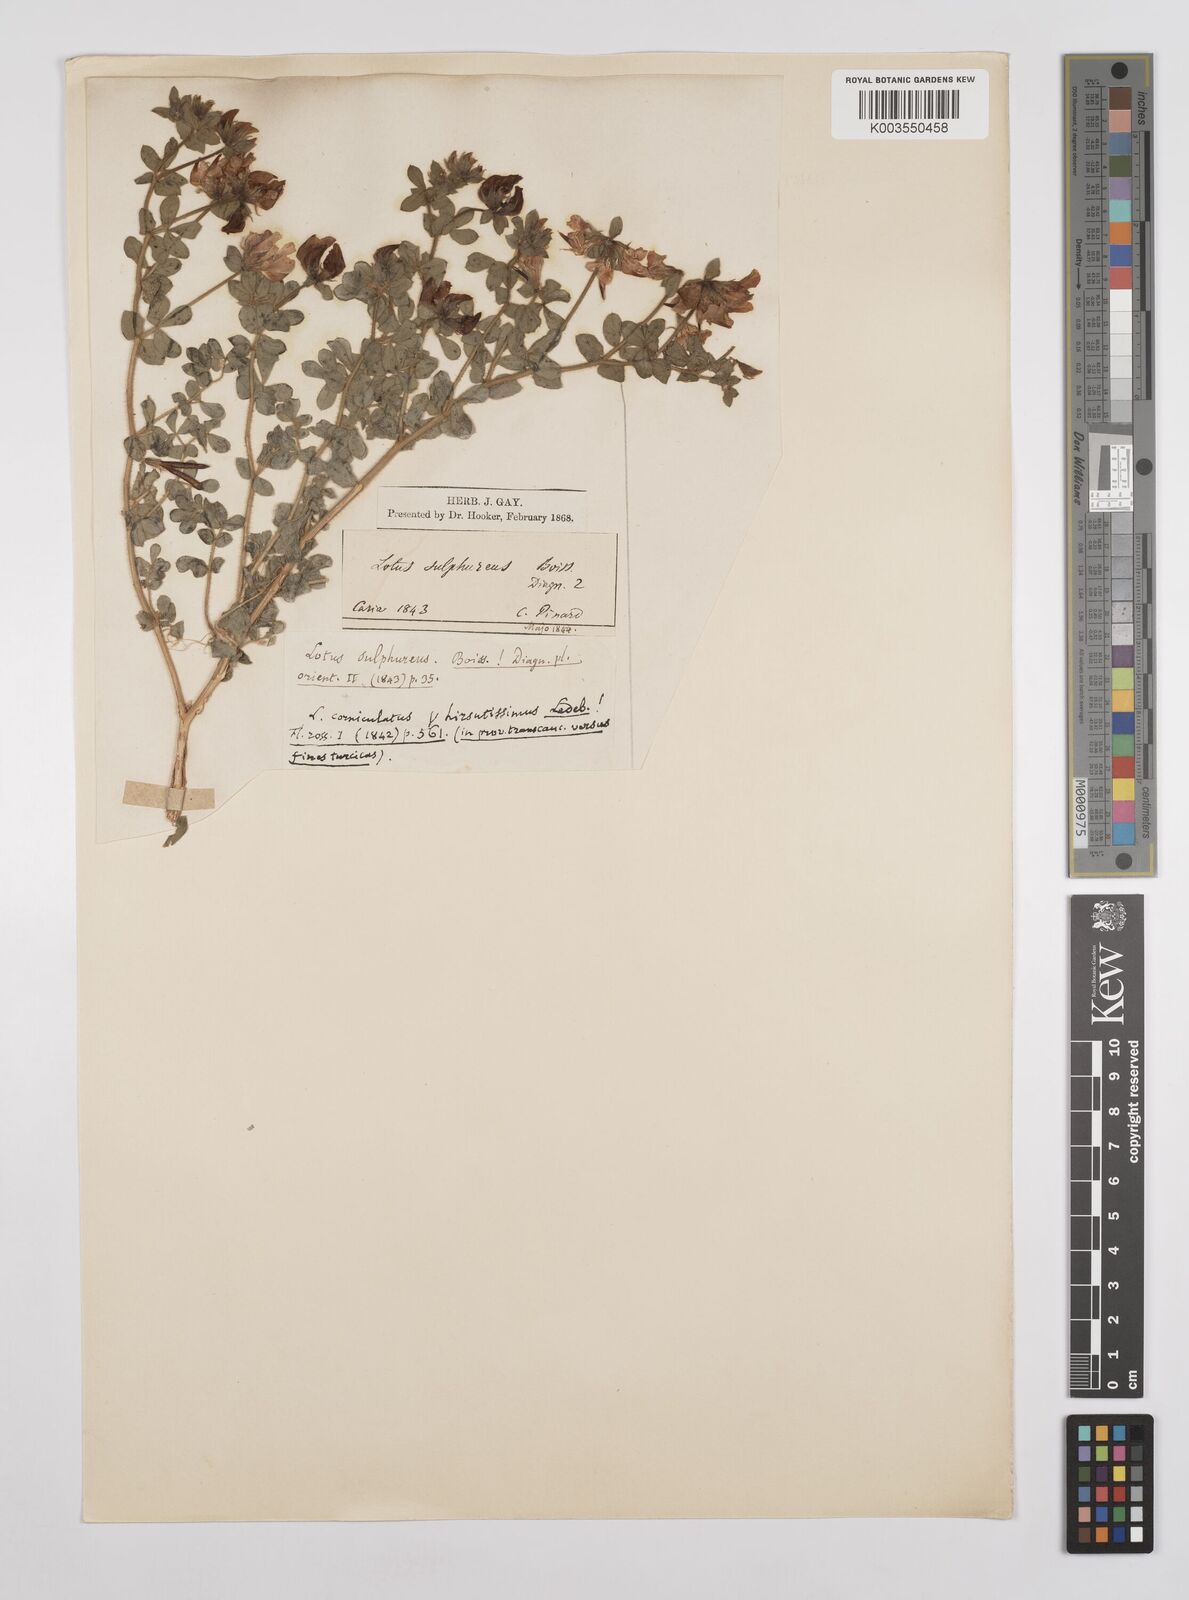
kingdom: Plantae
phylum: Tracheophyta
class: Magnoliopsida
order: Fabales
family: Fabaceae
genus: Lotus
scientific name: Lotus aegaeus
